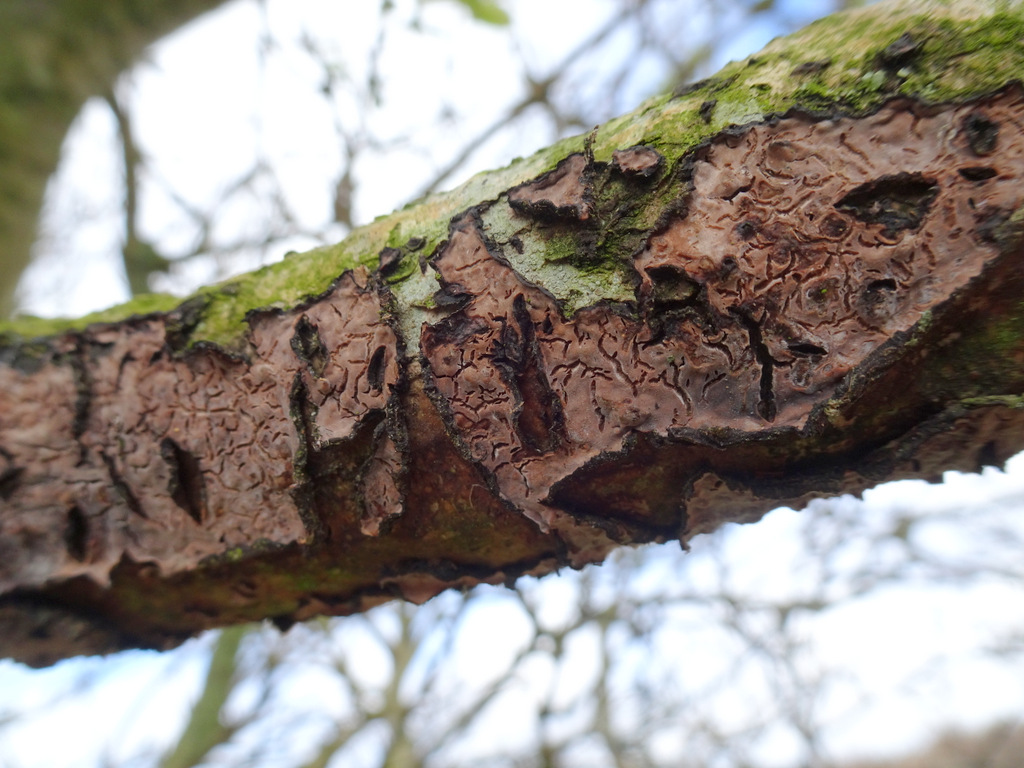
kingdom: Fungi
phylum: Basidiomycota
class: Agaricomycetes
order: Russulales
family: Peniophoraceae
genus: Peniophora
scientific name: Peniophora quercina
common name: ege-voksskind
